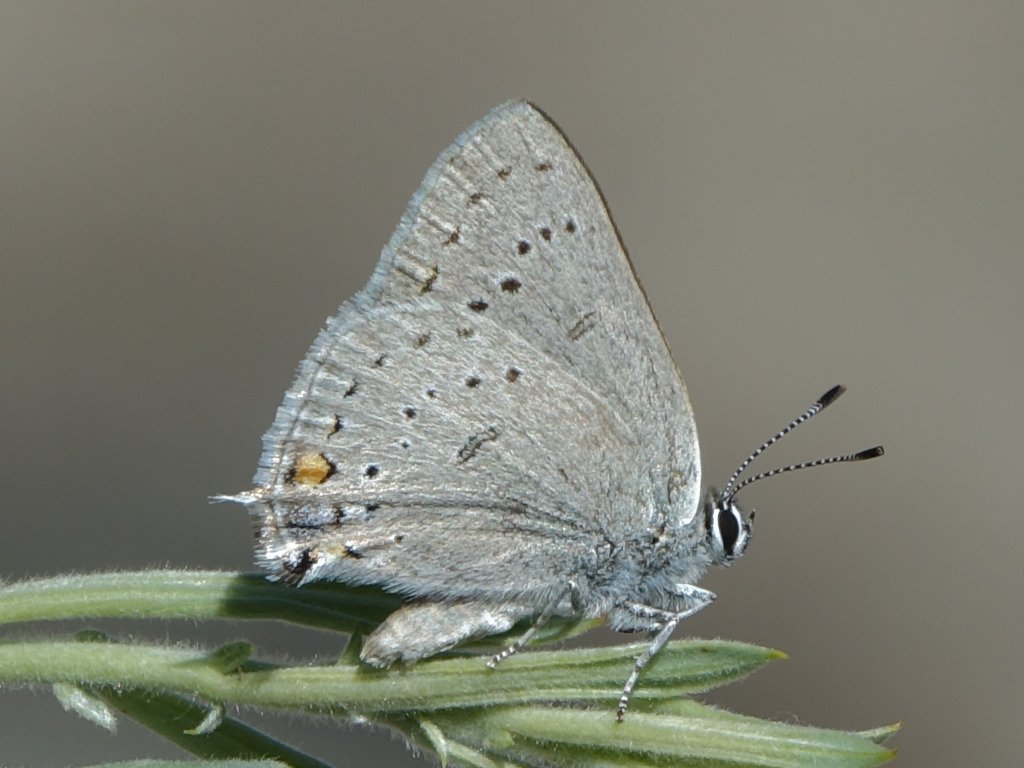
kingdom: Animalia
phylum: Arthropoda
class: Insecta
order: Lepidoptera
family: Lycaenidae
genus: Strymon
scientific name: Strymon sylvinus
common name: Sylvan Hairstreak
